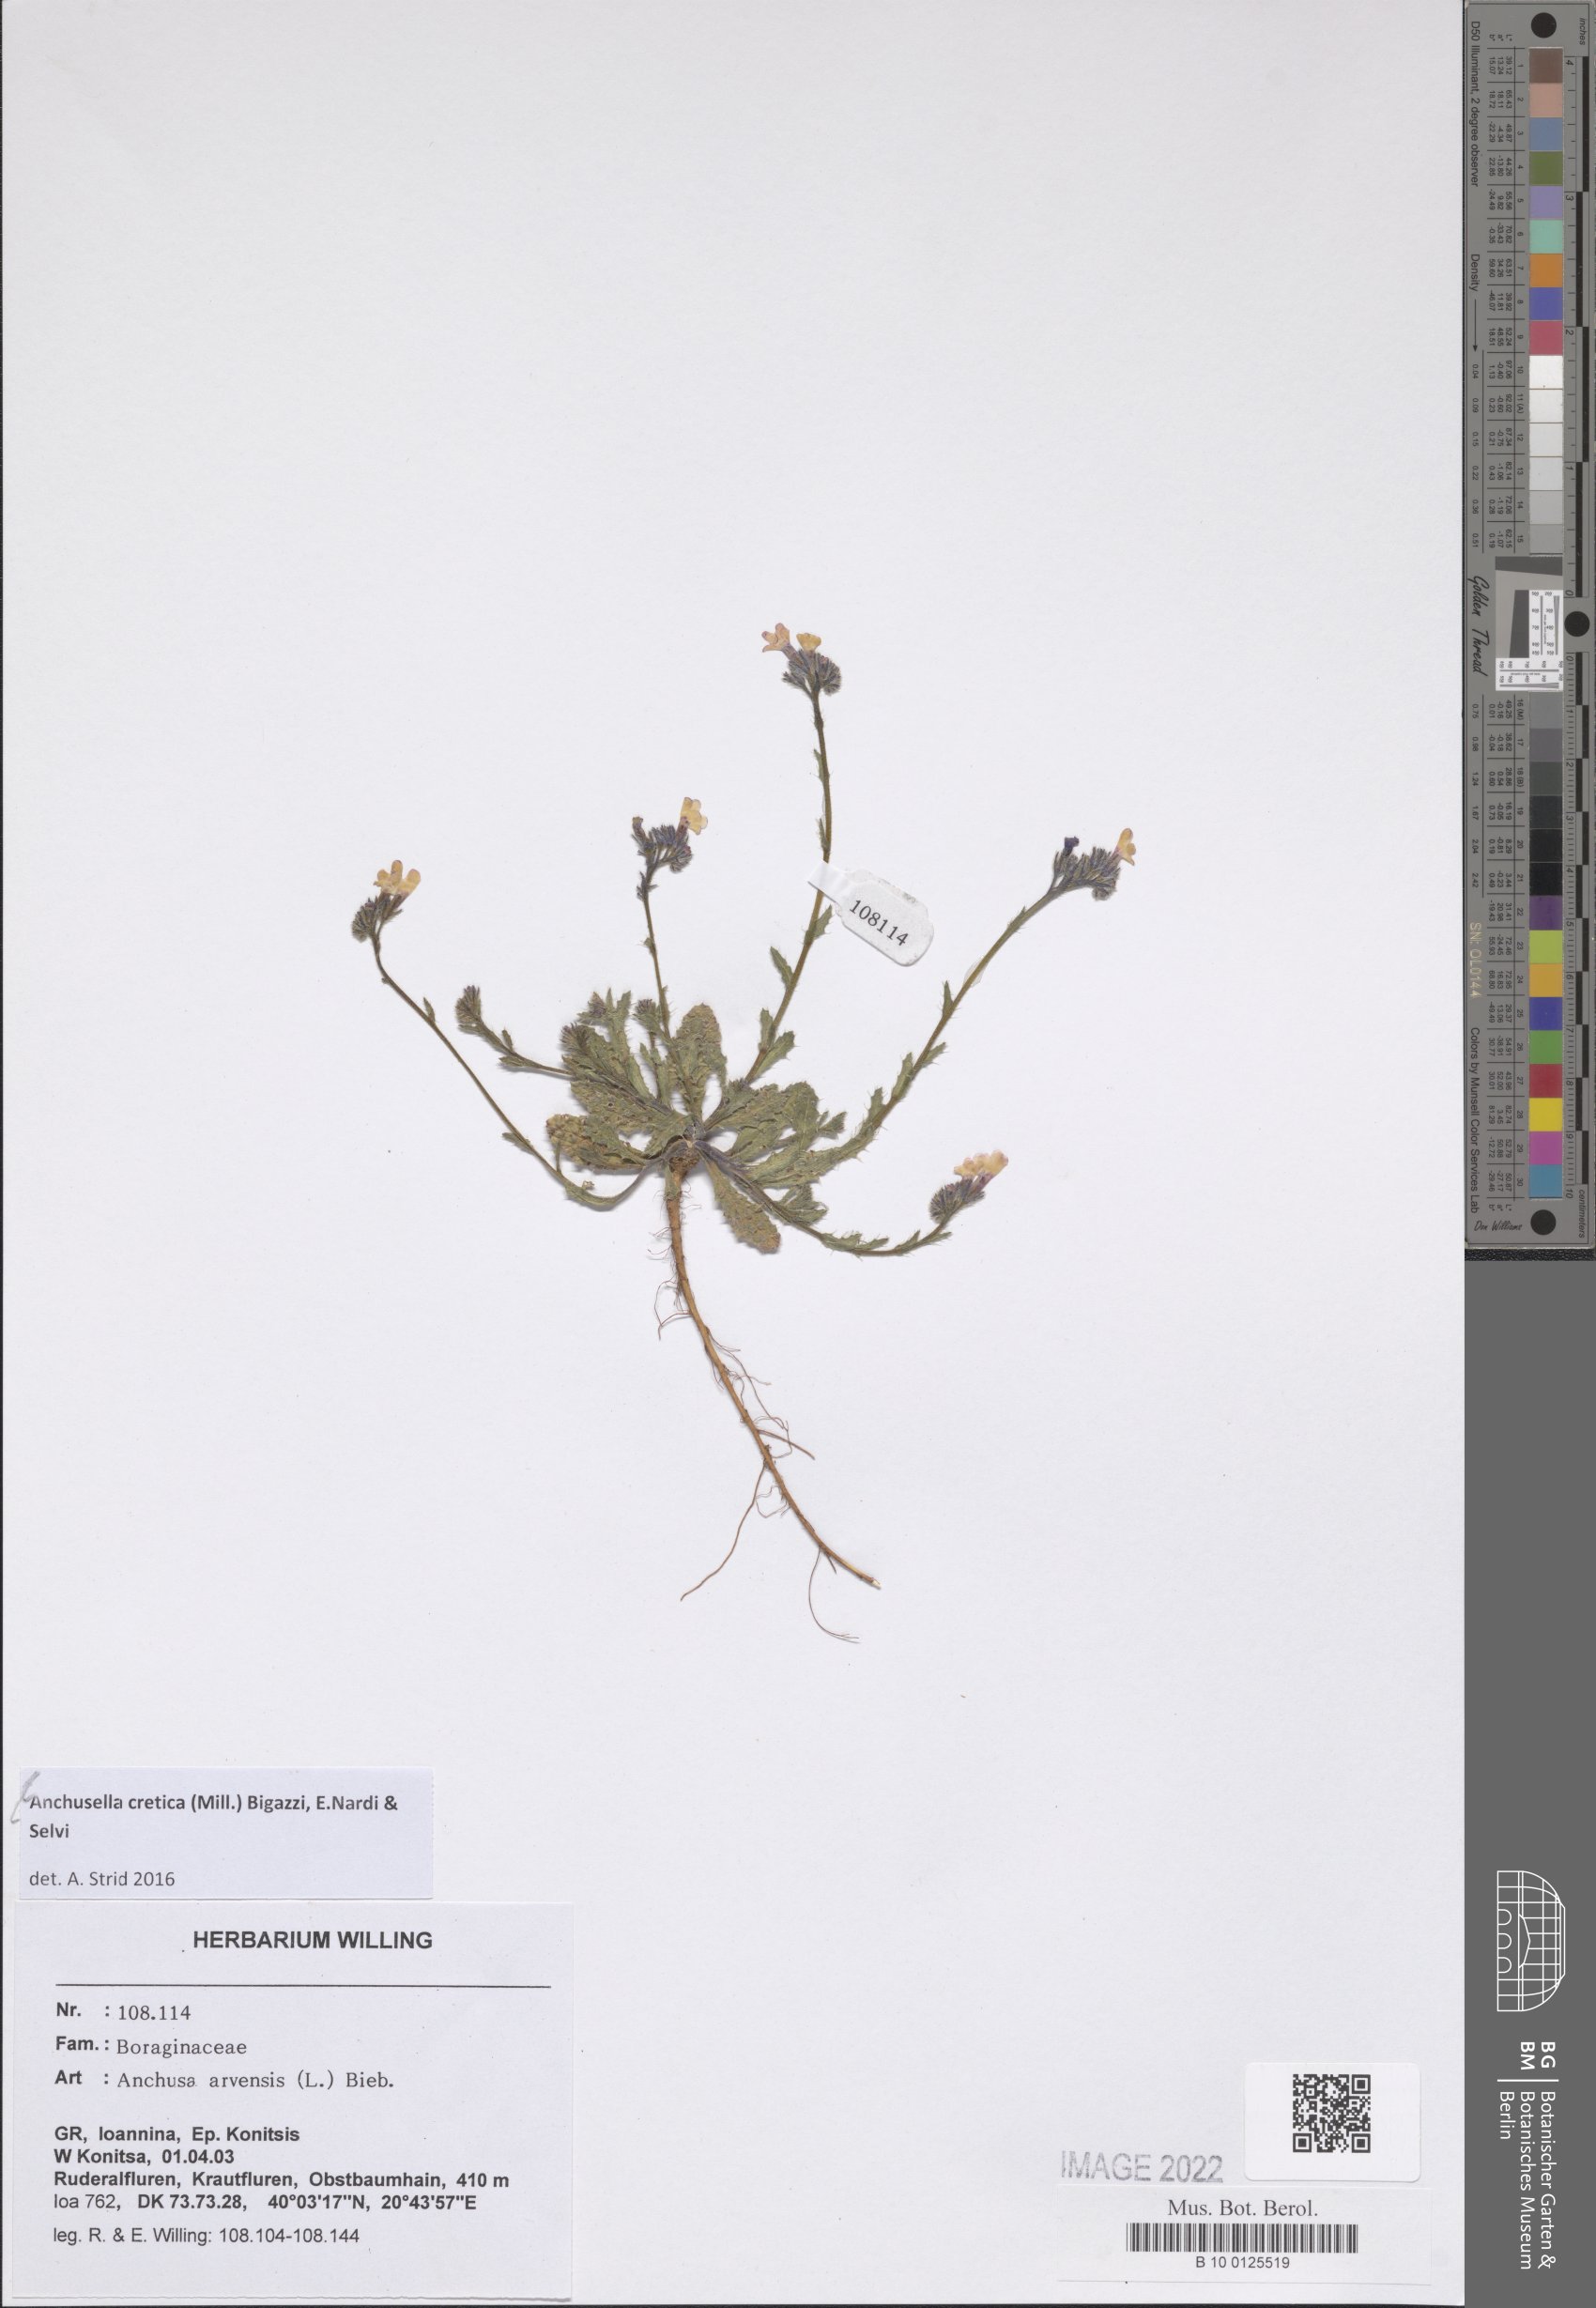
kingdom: Plantae
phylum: Tracheophyta
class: Magnoliopsida
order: Boraginales
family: Boraginaceae
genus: Anchusella
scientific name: Anchusella cretica
